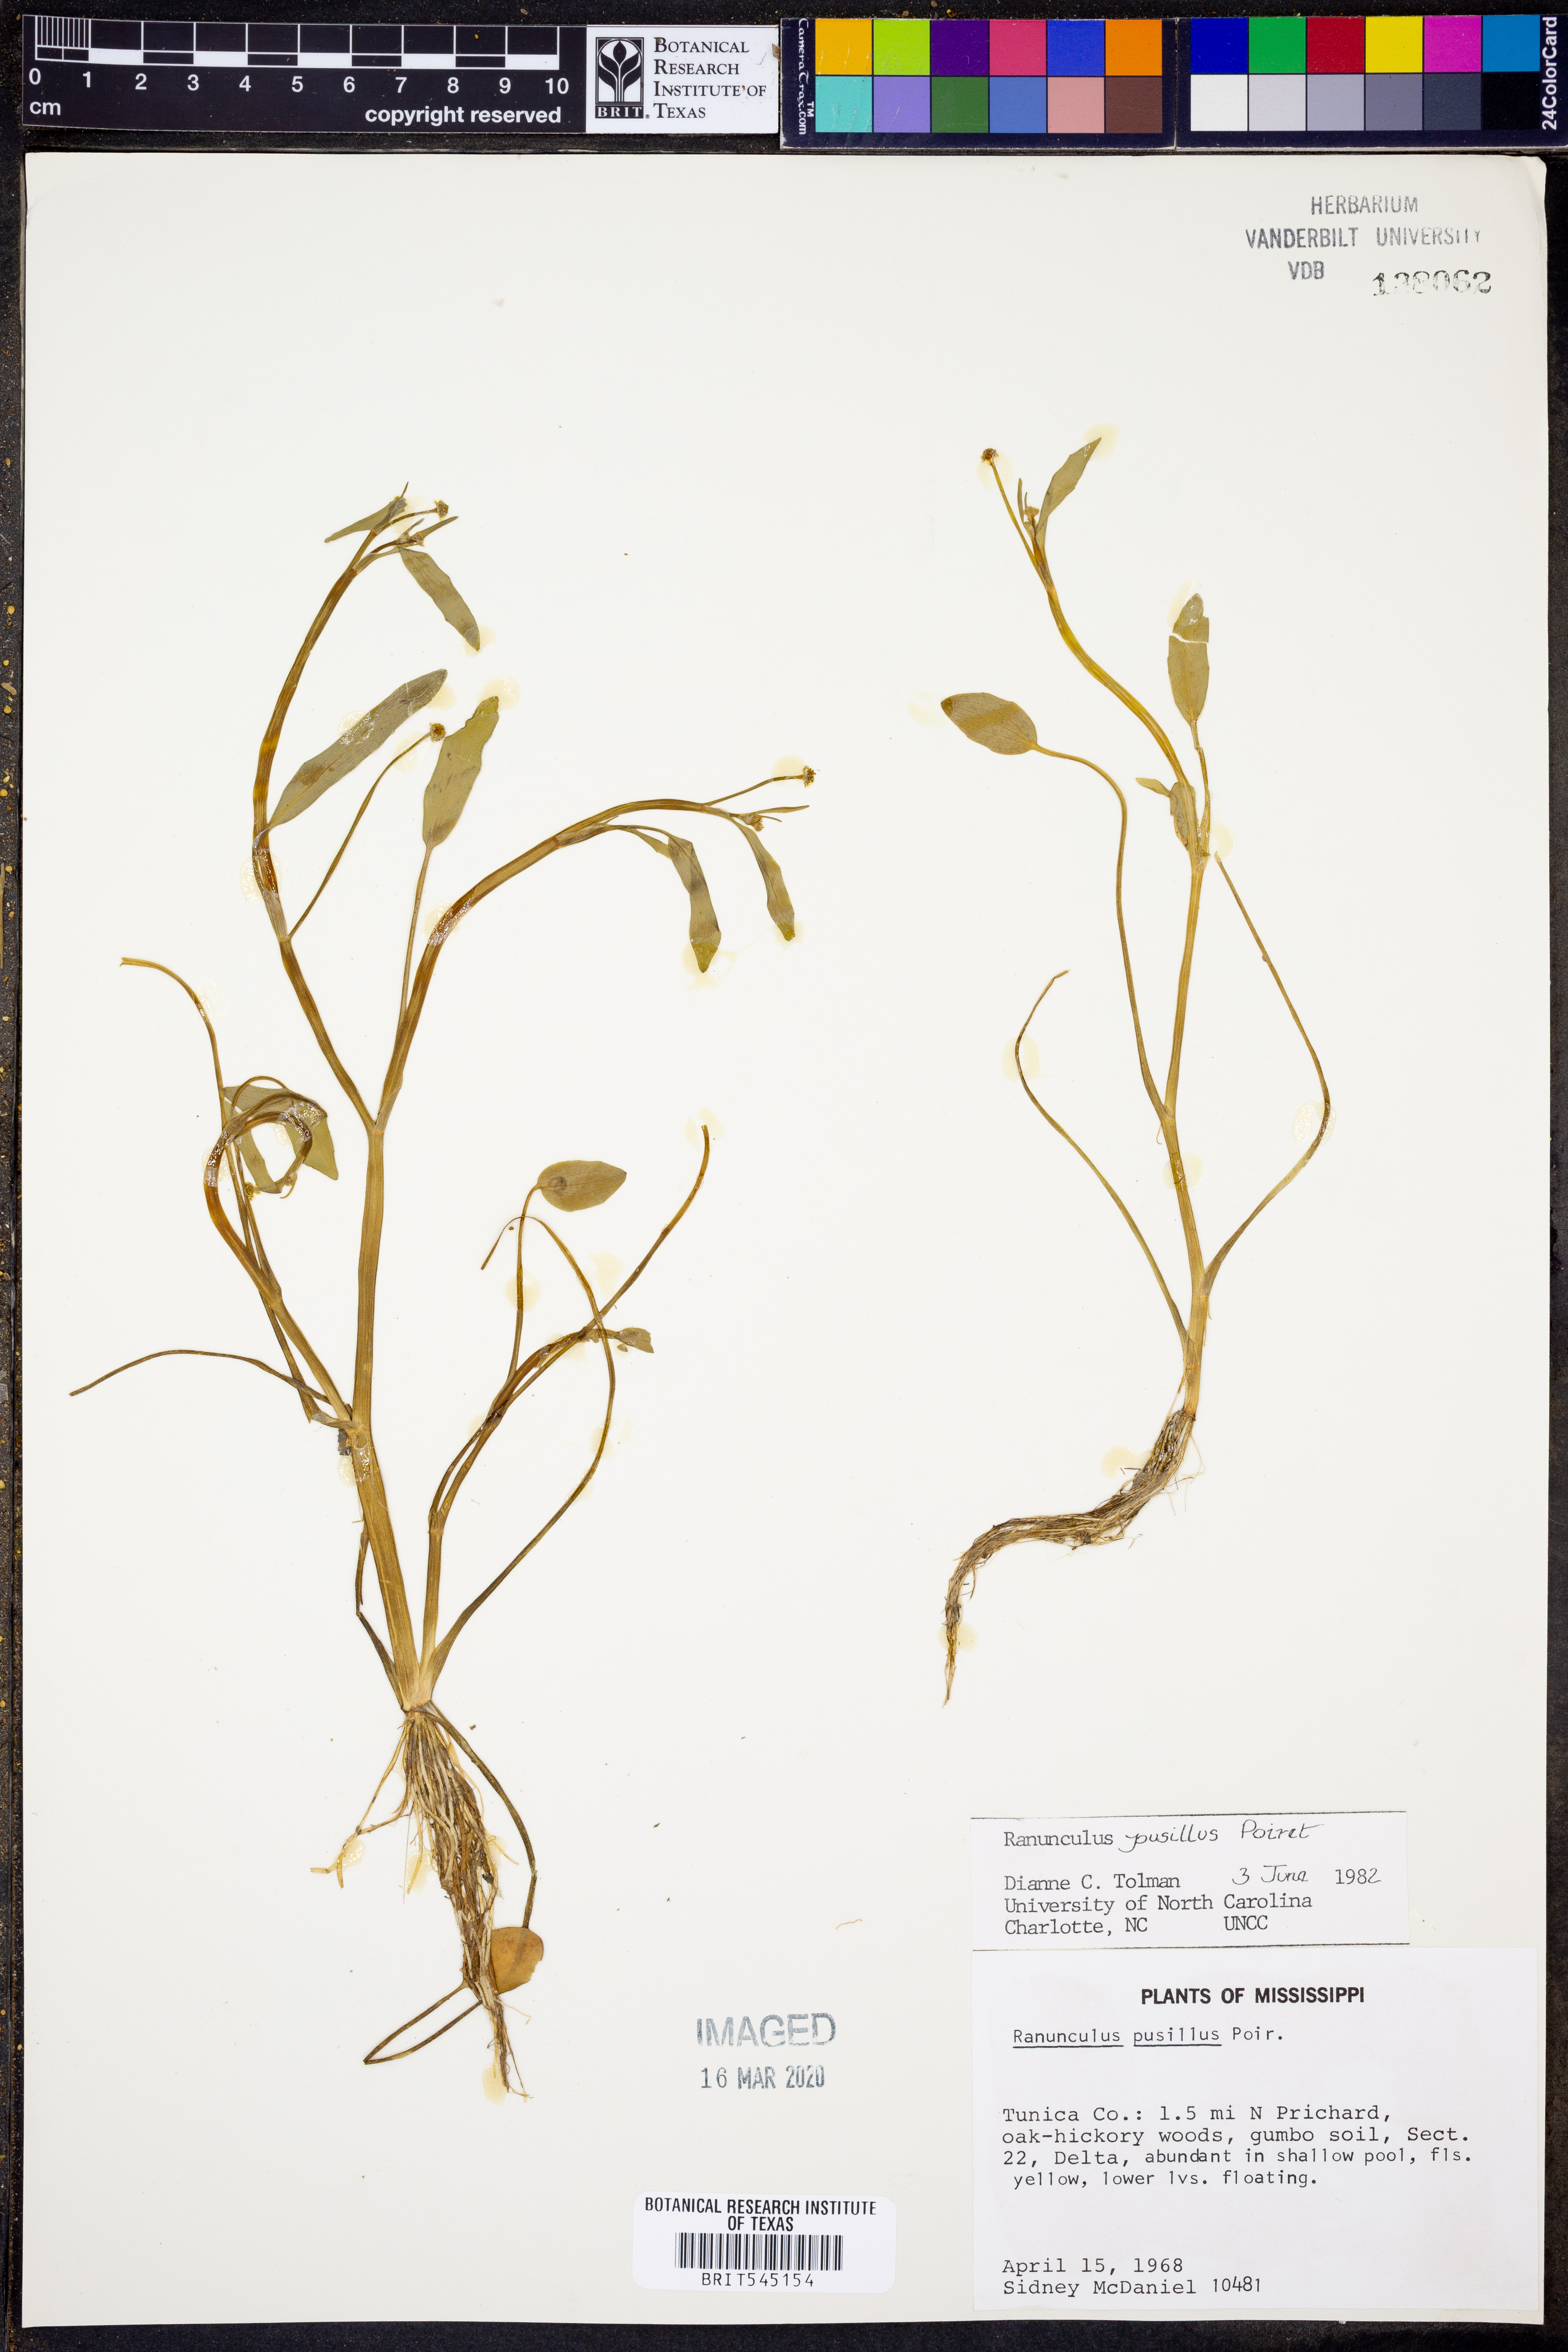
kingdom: Plantae
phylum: Tracheophyta
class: Magnoliopsida
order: Ranunculales
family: Ranunculaceae
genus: Ranunculus
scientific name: Ranunculus pusillus
